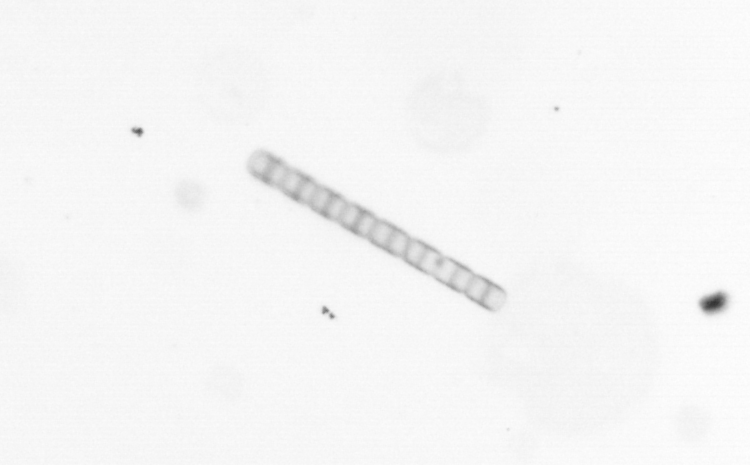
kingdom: Chromista
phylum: Ochrophyta
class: Bacillariophyceae
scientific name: Bacillariophyceae
